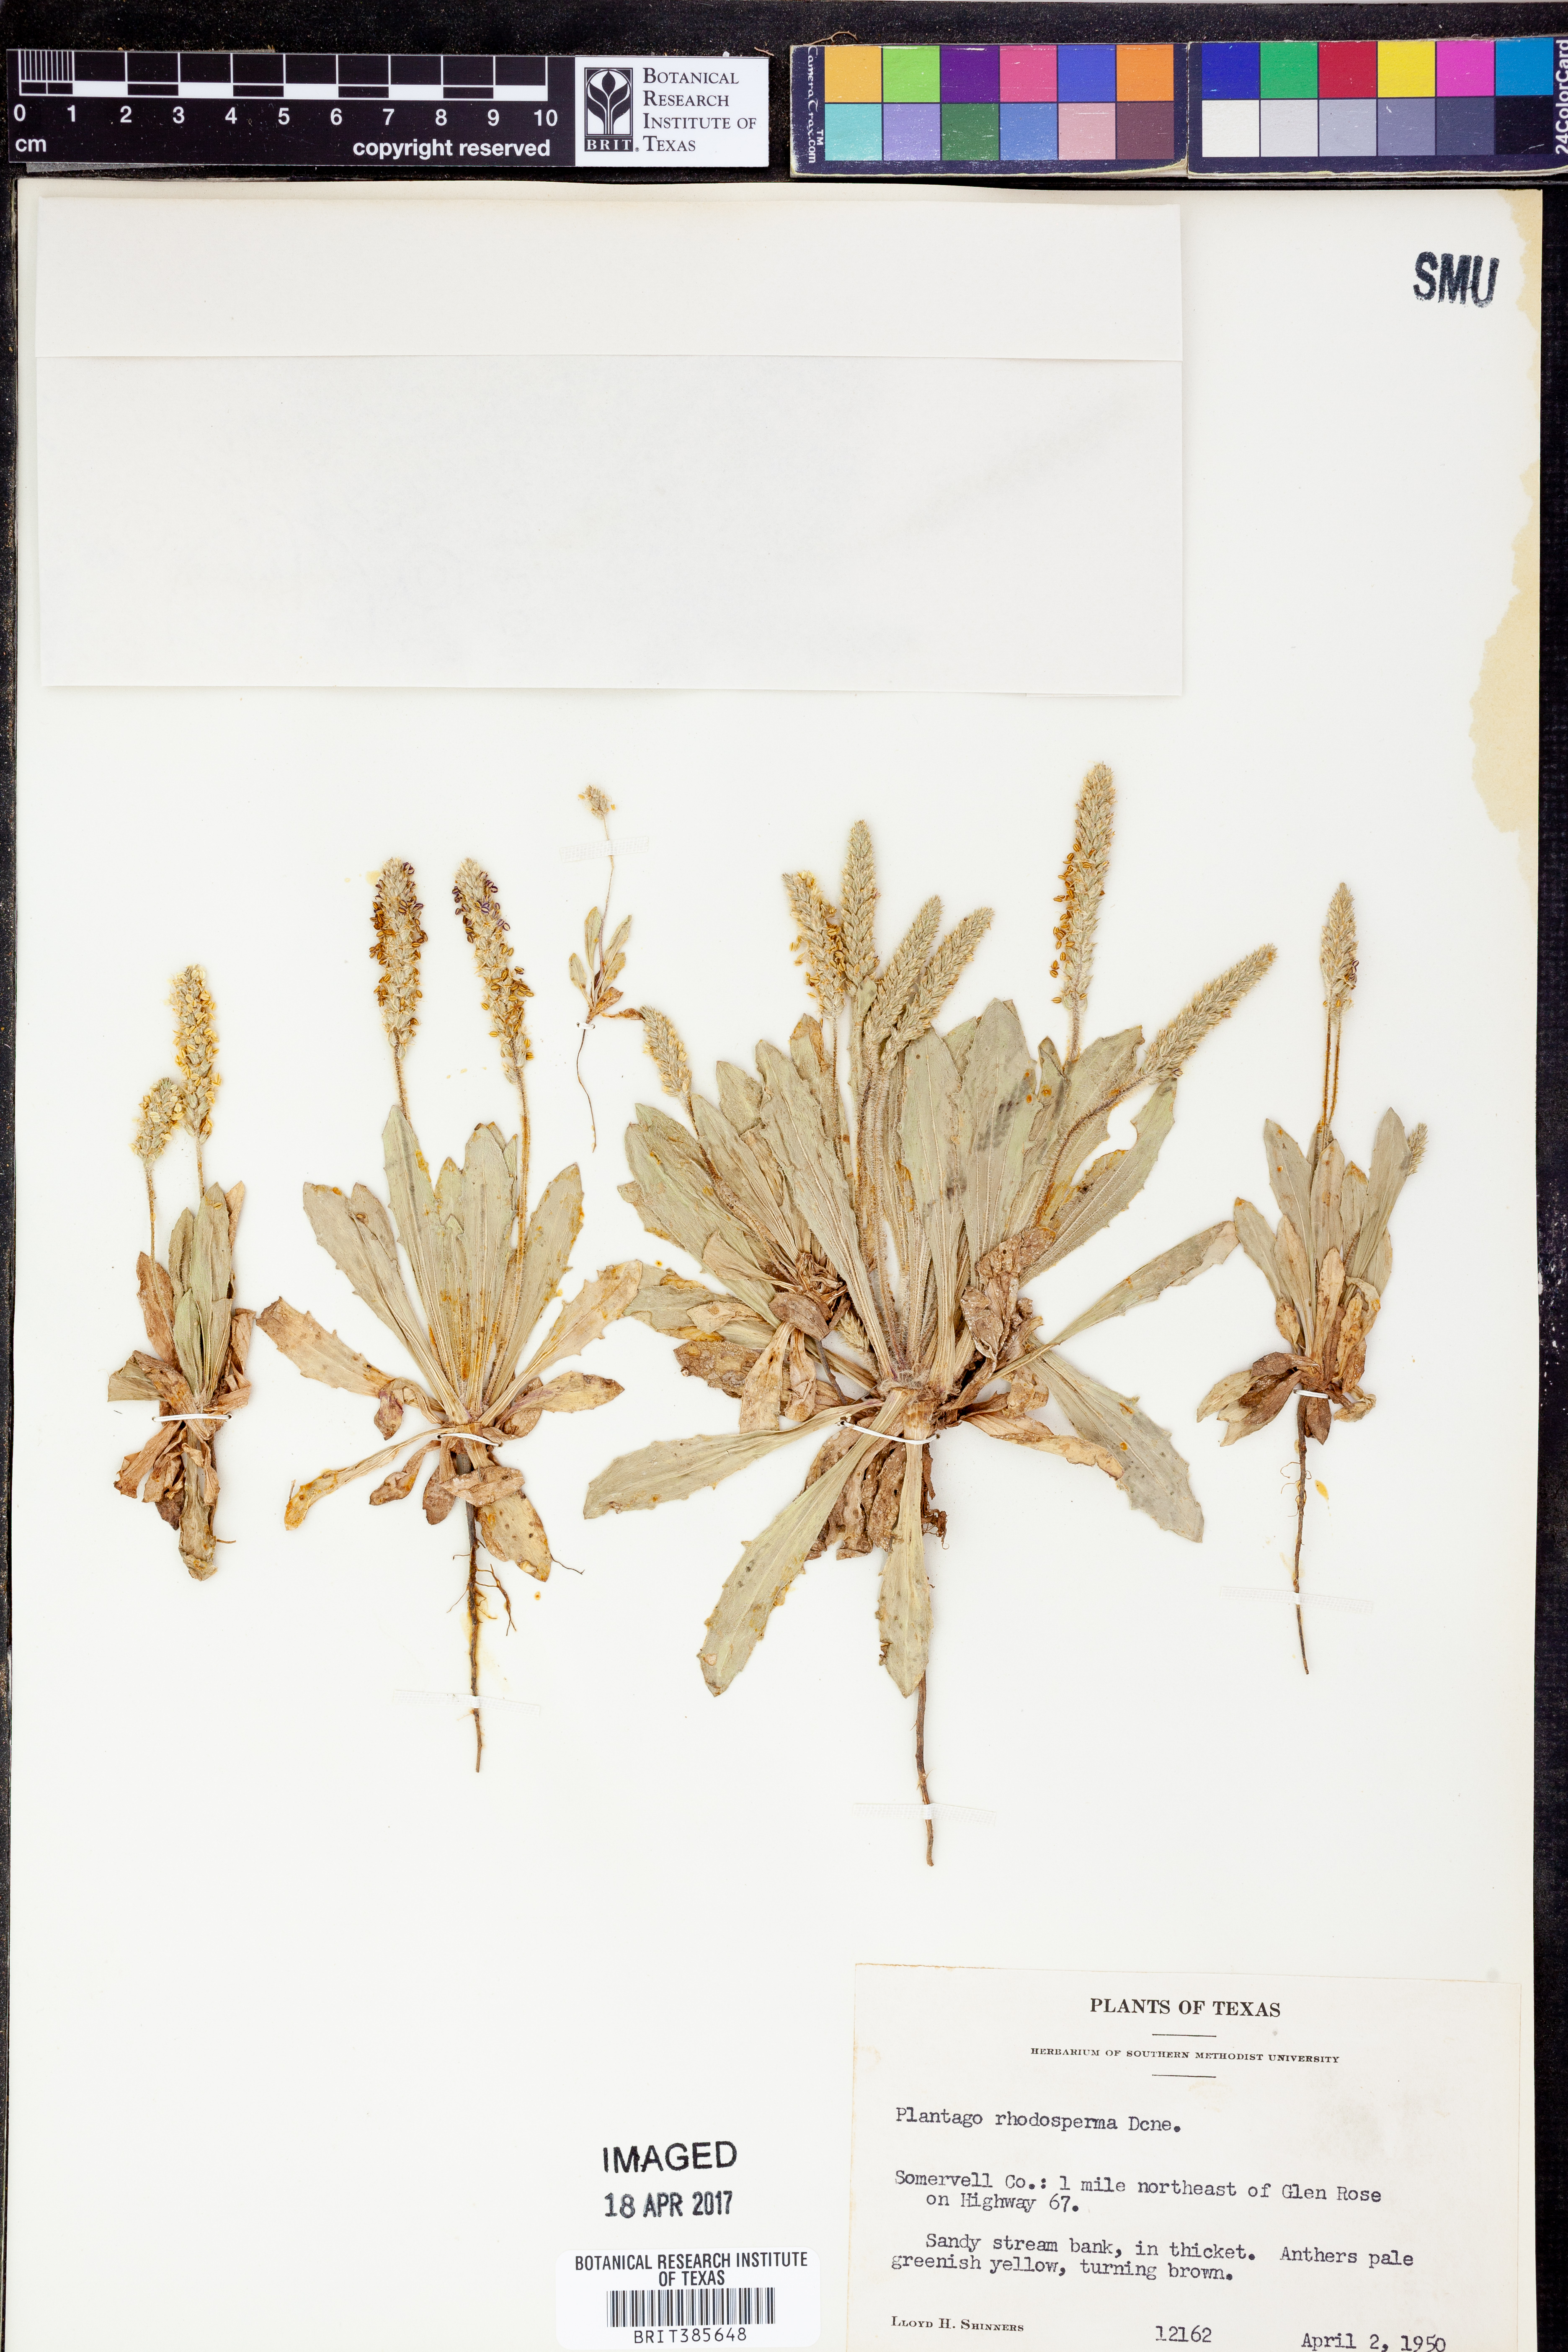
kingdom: Plantae
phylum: Tracheophyta
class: Magnoliopsida
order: Lamiales
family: Plantaginaceae
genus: Plantago
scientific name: Plantago rhodosperma
